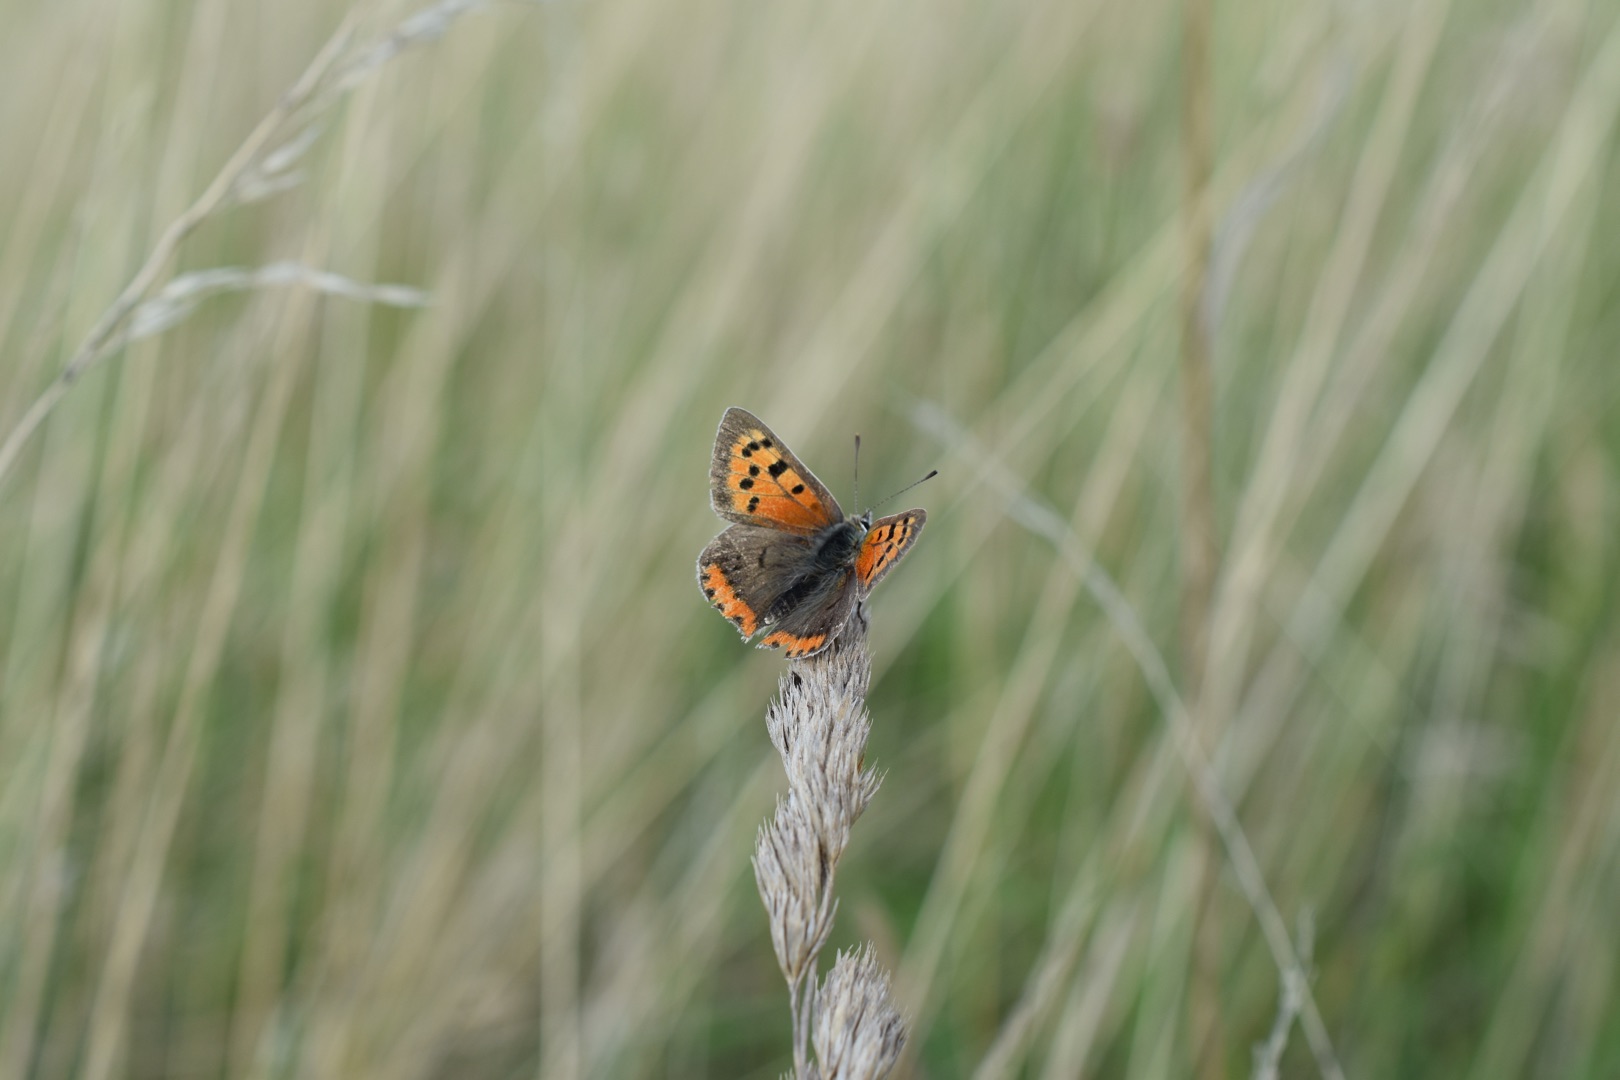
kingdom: Animalia
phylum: Arthropoda
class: Insecta
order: Lepidoptera
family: Lycaenidae
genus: Lycaena
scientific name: Lycaena phlaeas
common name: Lille ildfugl
